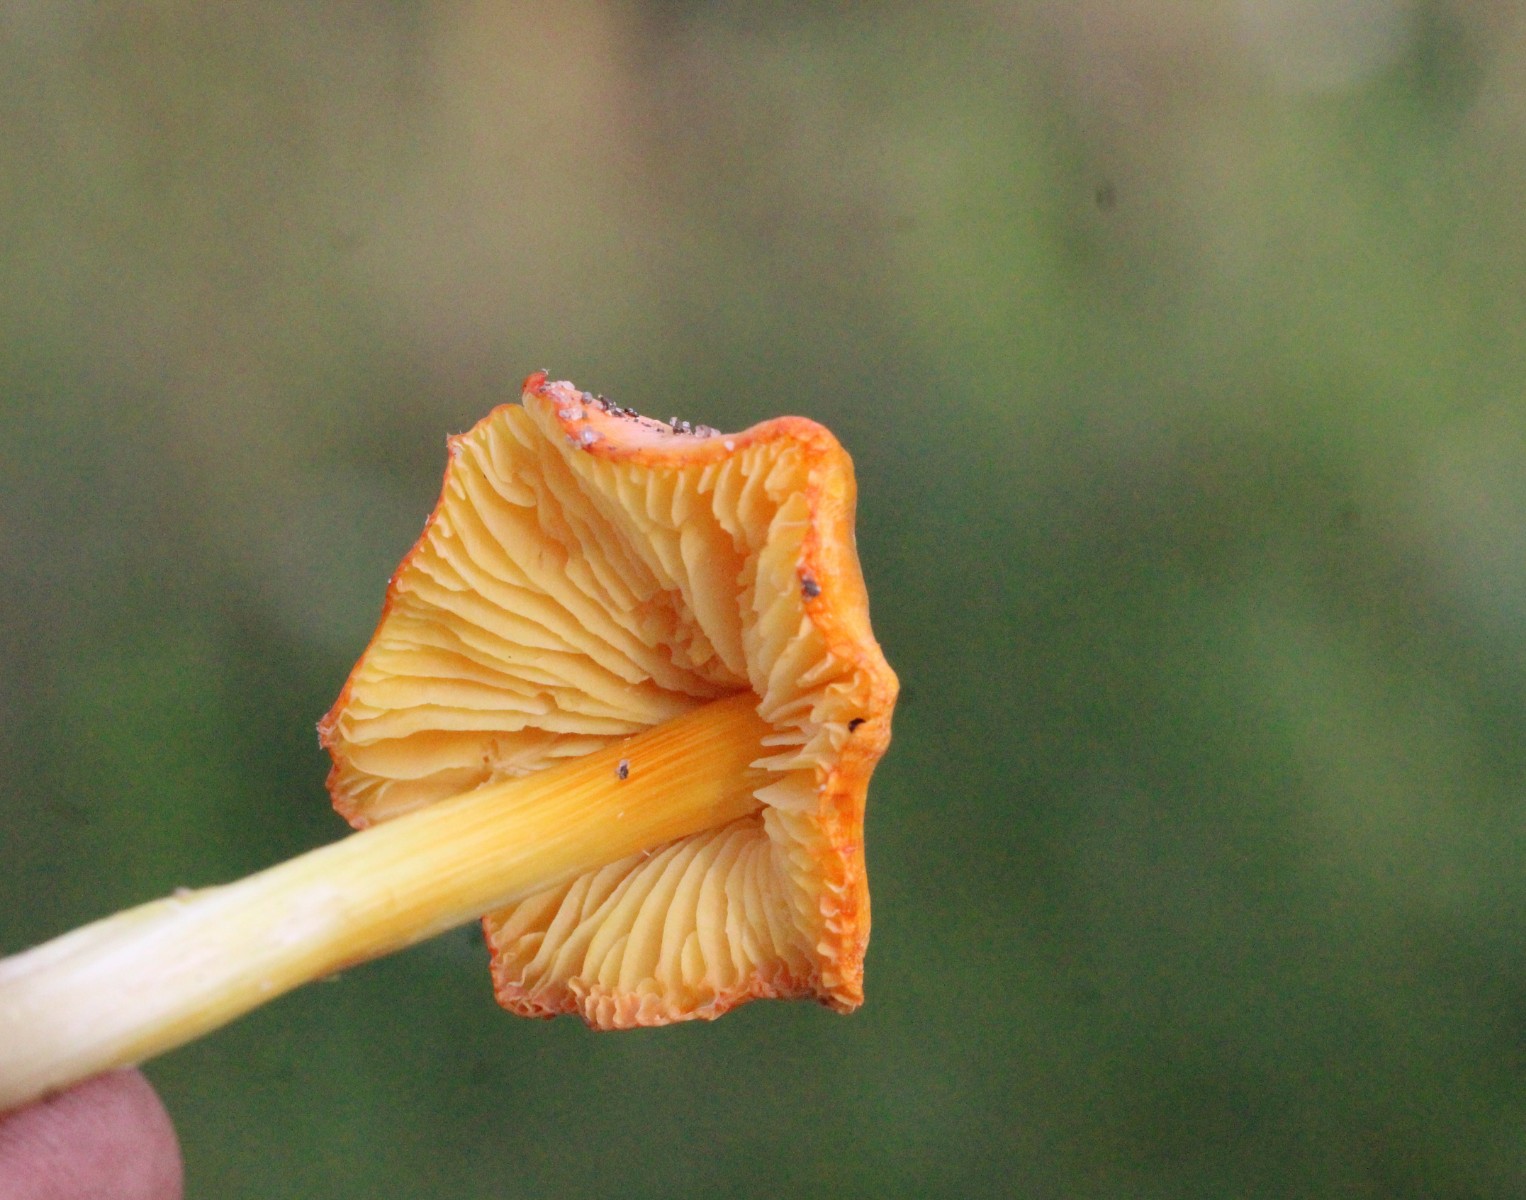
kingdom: Fungi
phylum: Basidiomycota
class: Agaricomycetes
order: Agaricales
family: Hygrophoraceae
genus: Hygrocybe
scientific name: Hygrocybe acutoconica
